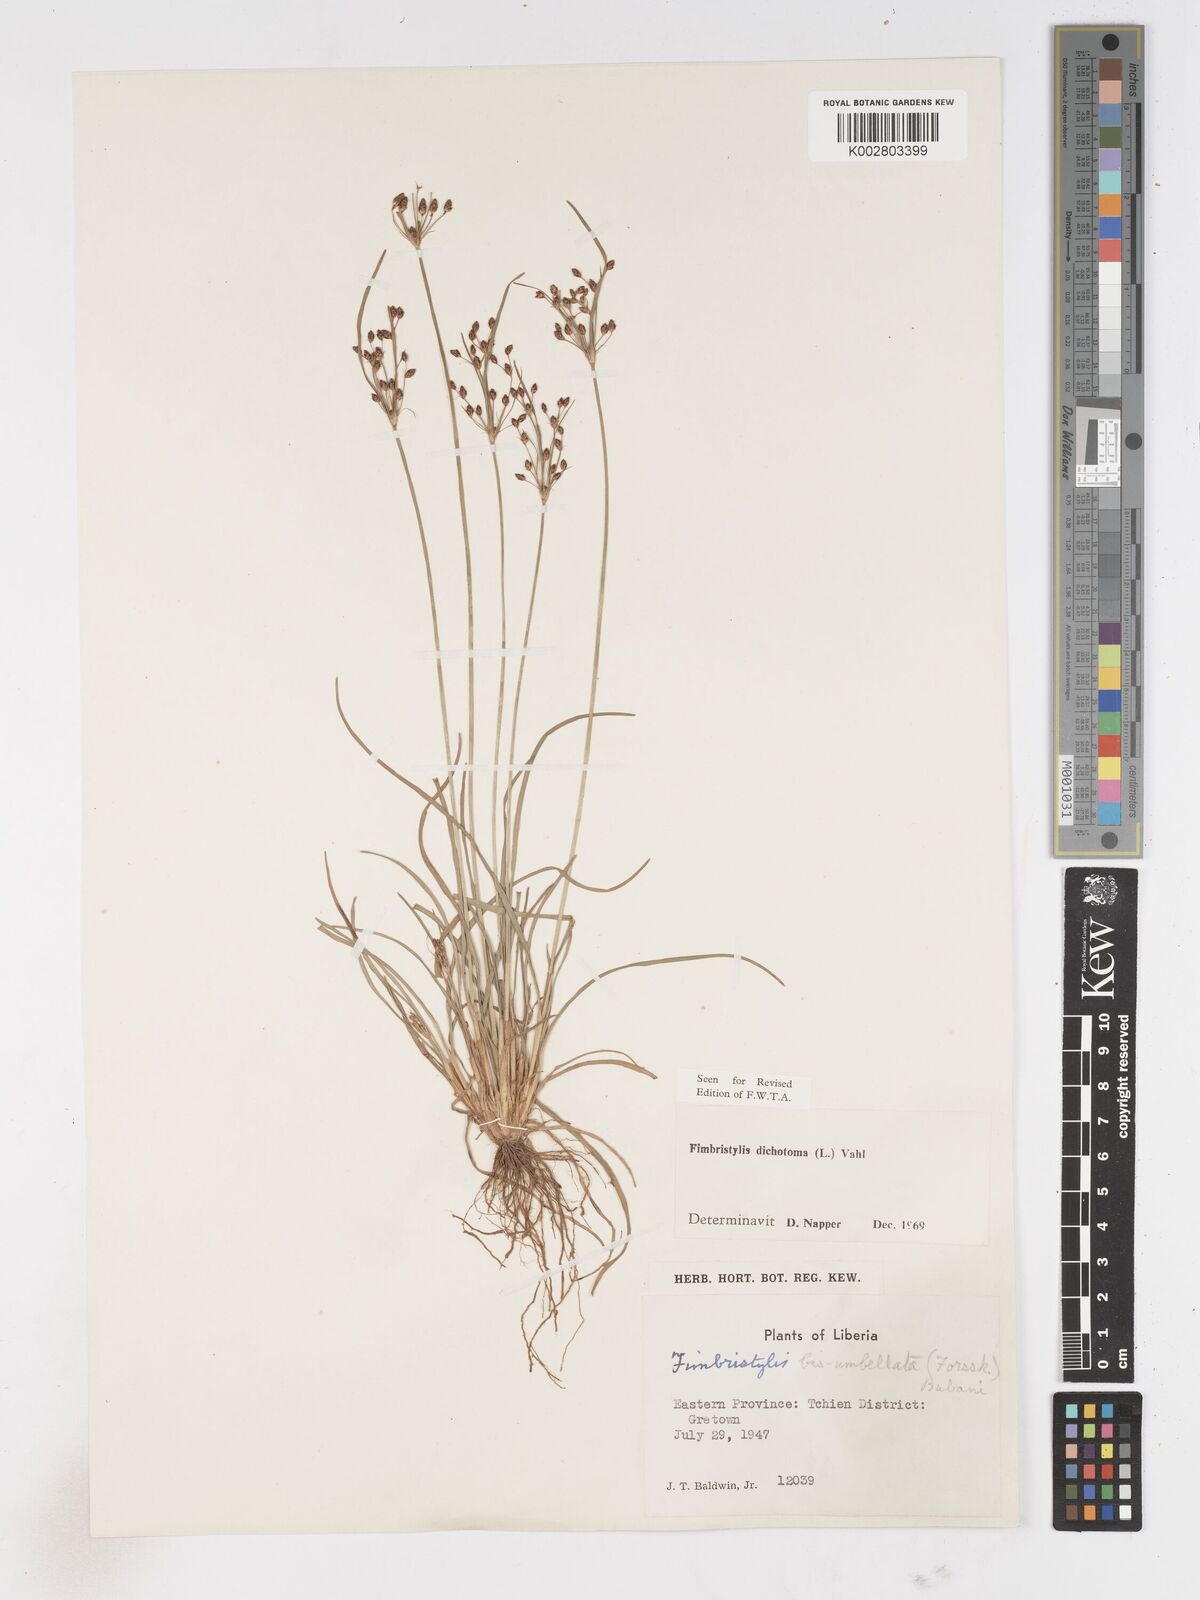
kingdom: Plantae
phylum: Tracheophyta
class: Liliopsida
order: Poales
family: Cyperaceae
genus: Fimbristylis
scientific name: Fimbristylis dichotoma
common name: Forked fimbry
